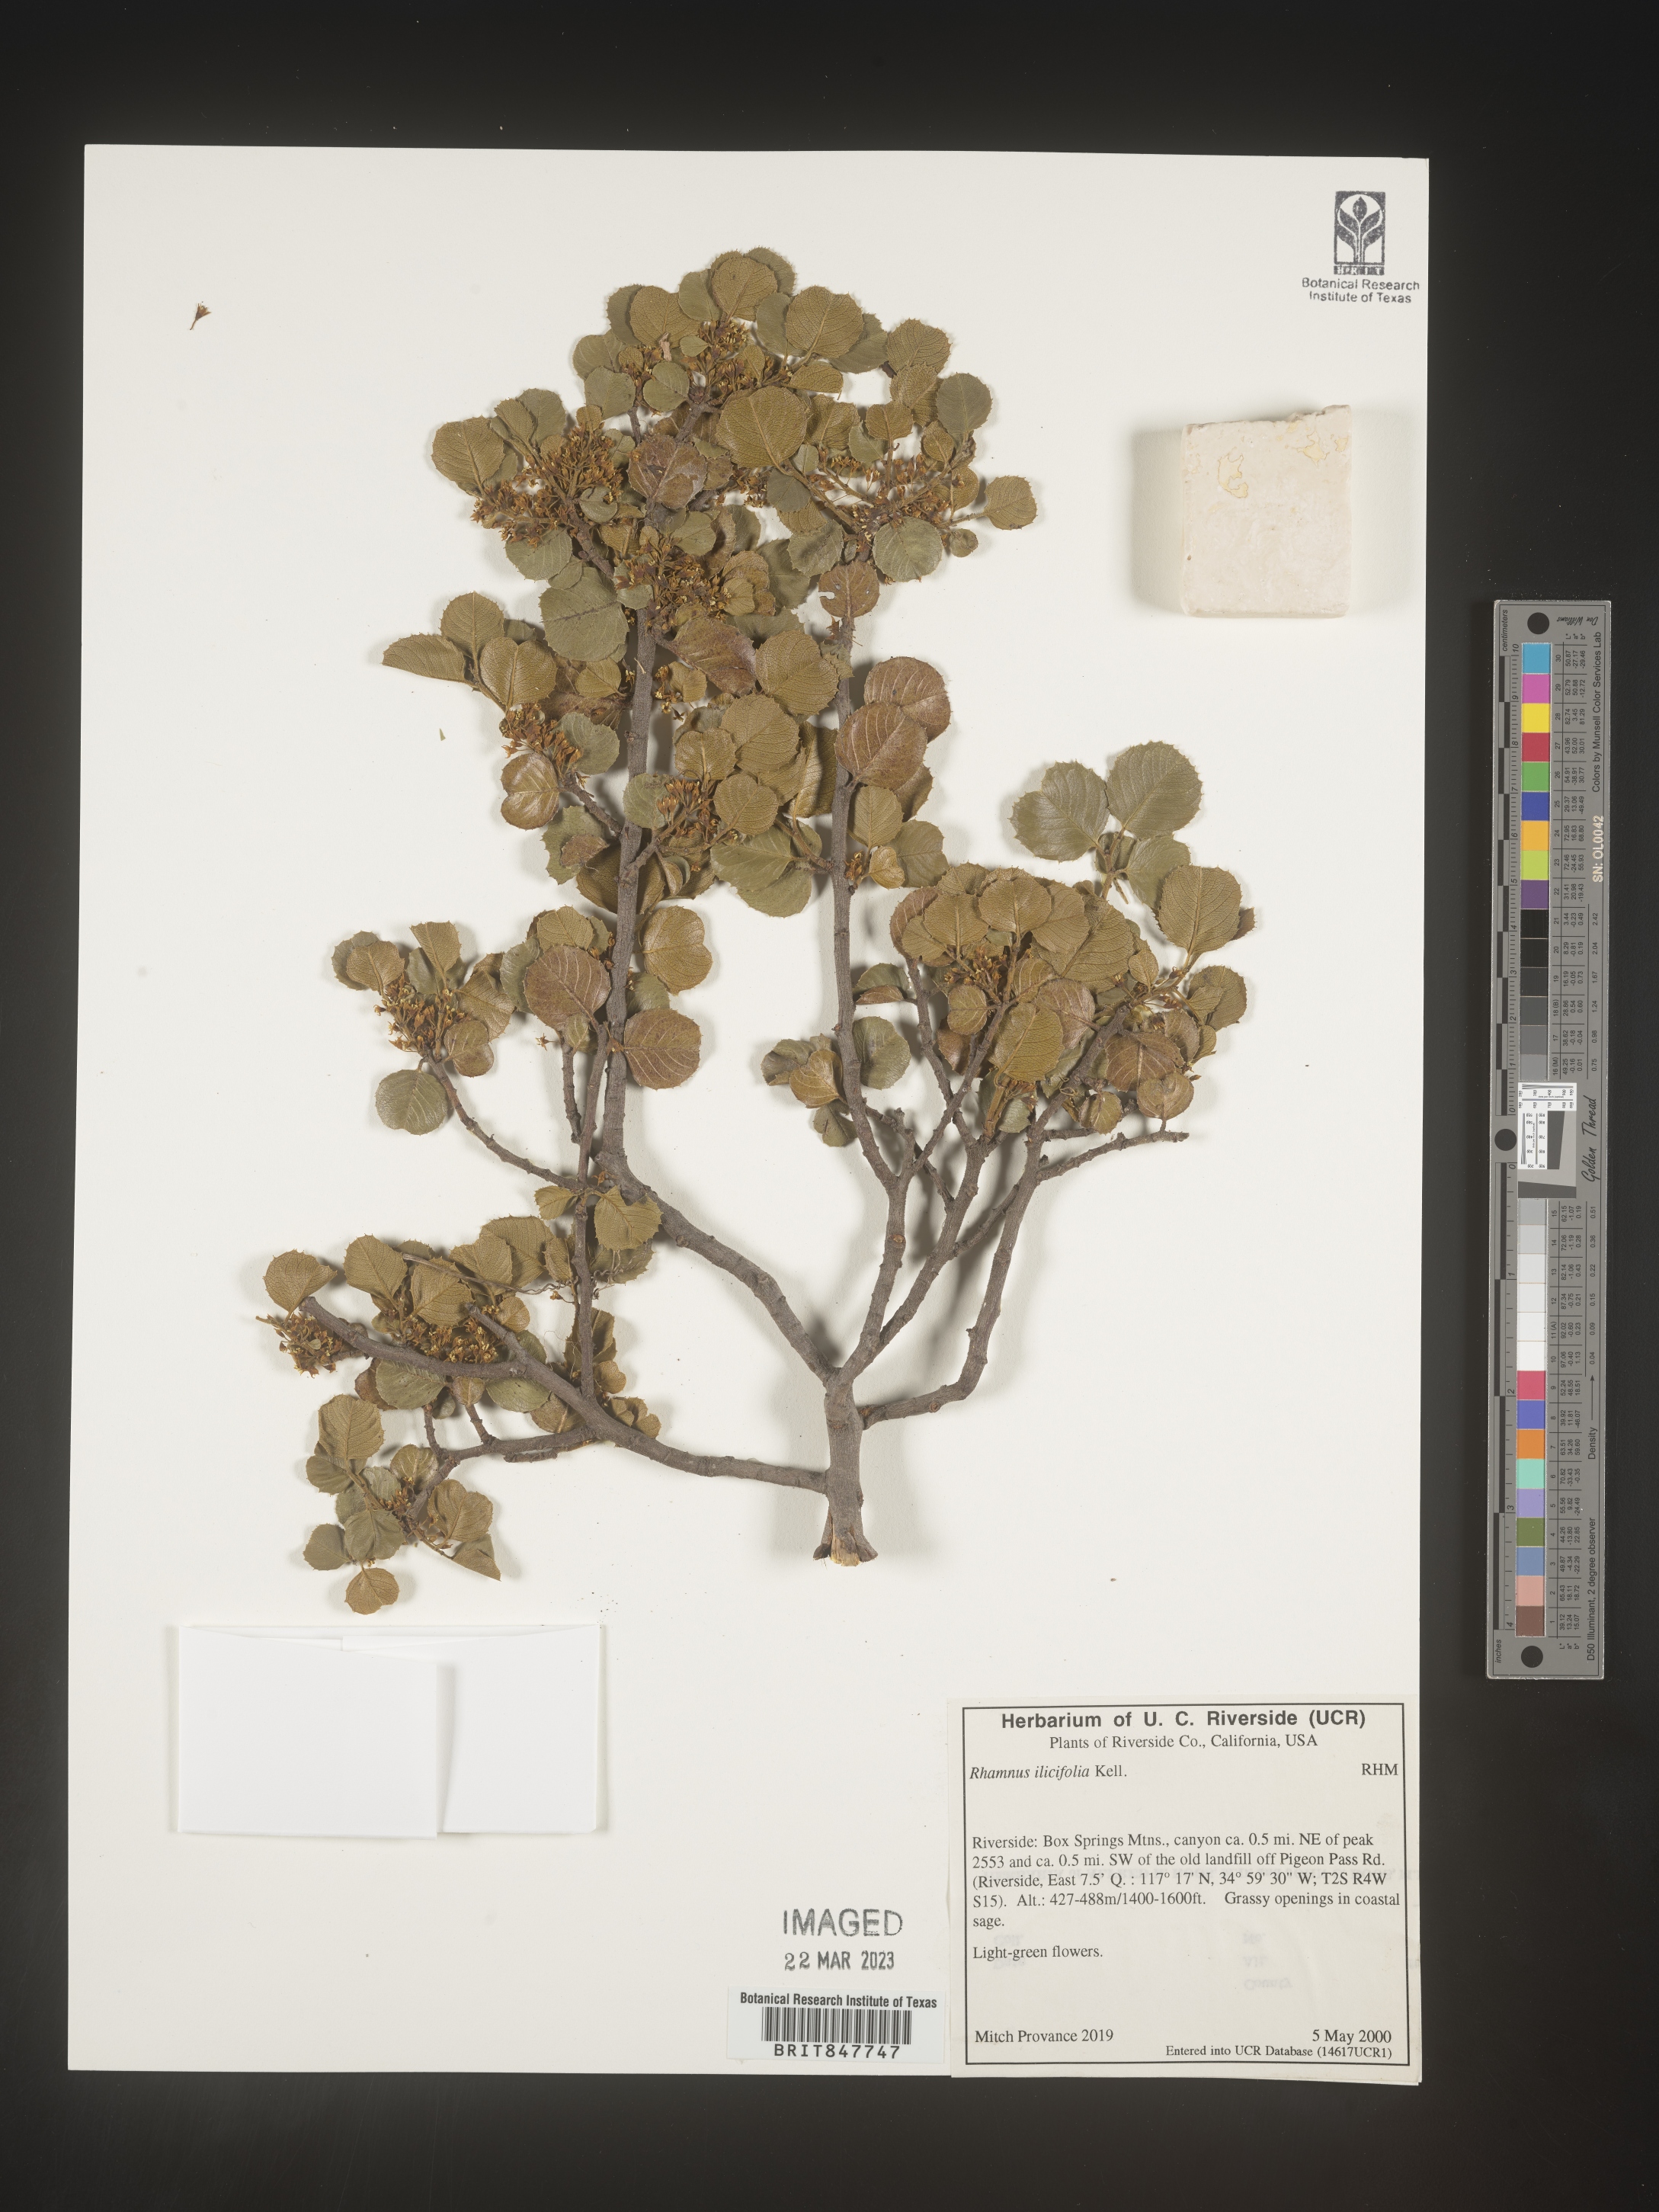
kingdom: Plantae
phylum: Tracheophyta
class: Magnoliopsida
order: Rosales
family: Rhamnaceae
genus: Endotropis
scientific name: Endotropis crocea
